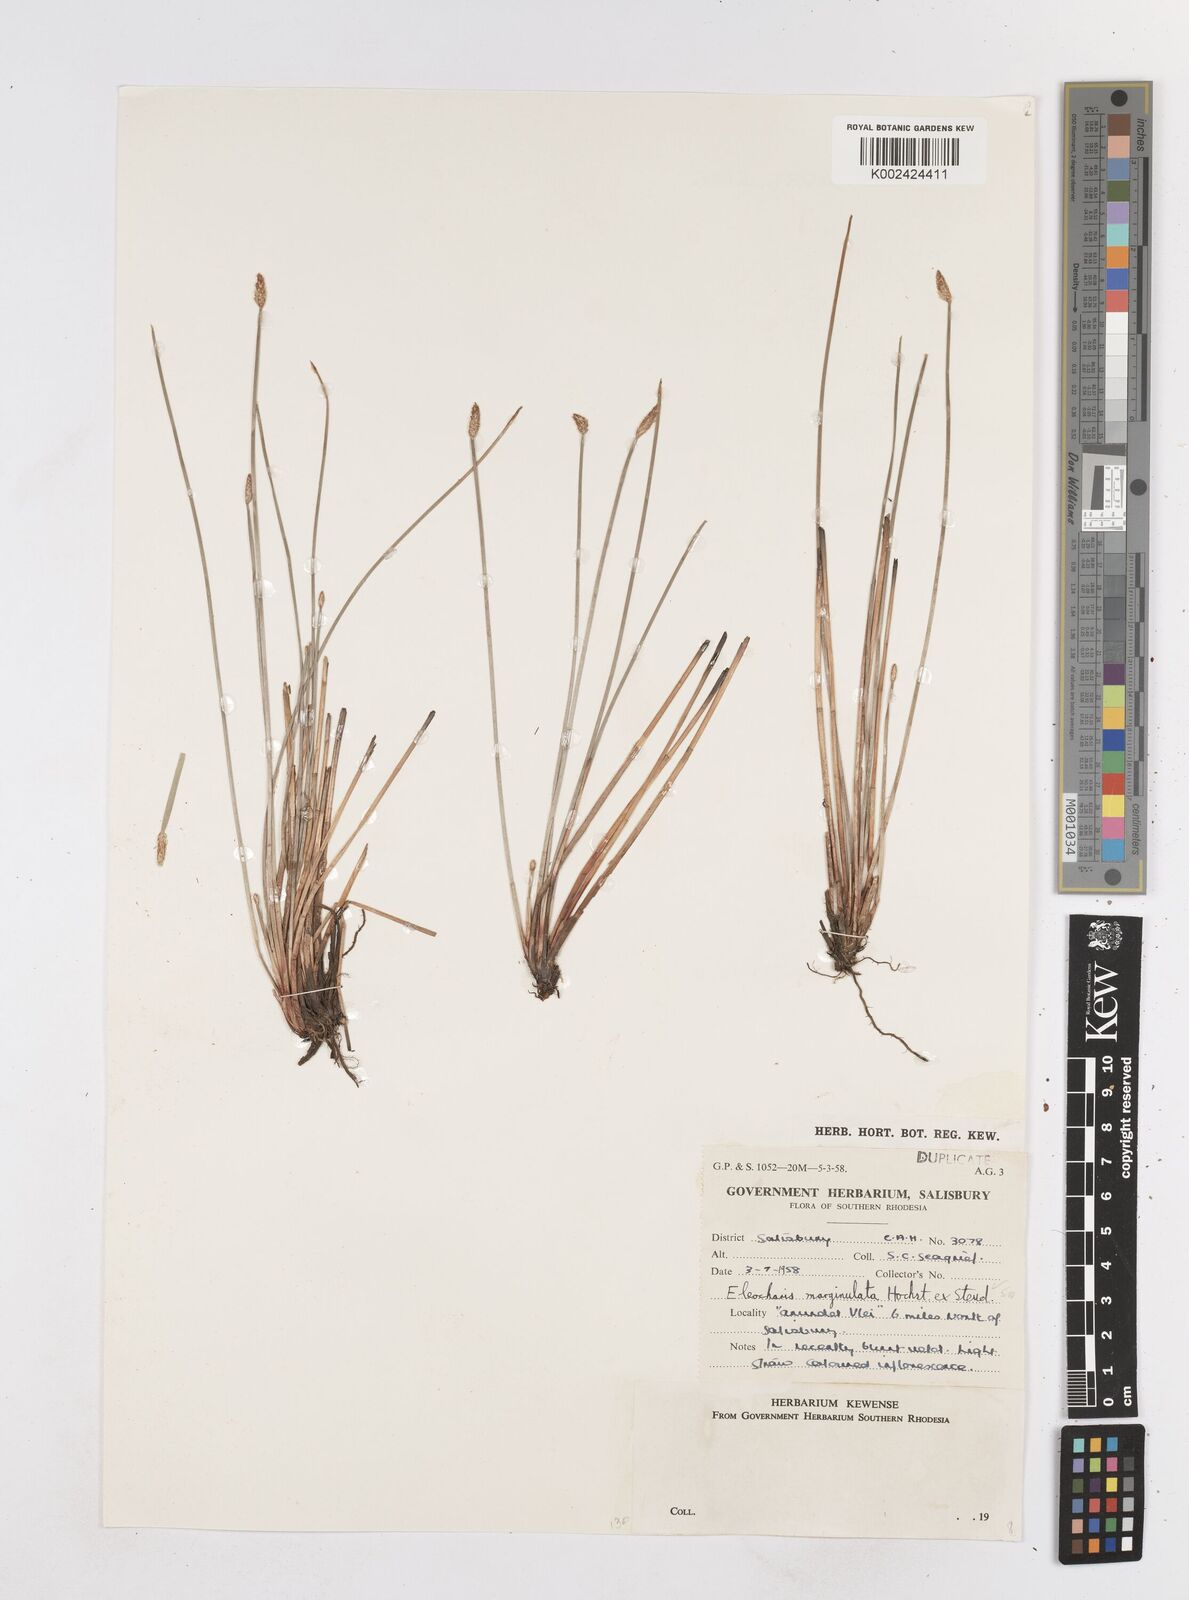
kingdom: Plantae
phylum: Tracheophyta
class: Liliopsida
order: Poales
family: Cyperaceae
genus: Eleocharis
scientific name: Eleocharis marginulata
